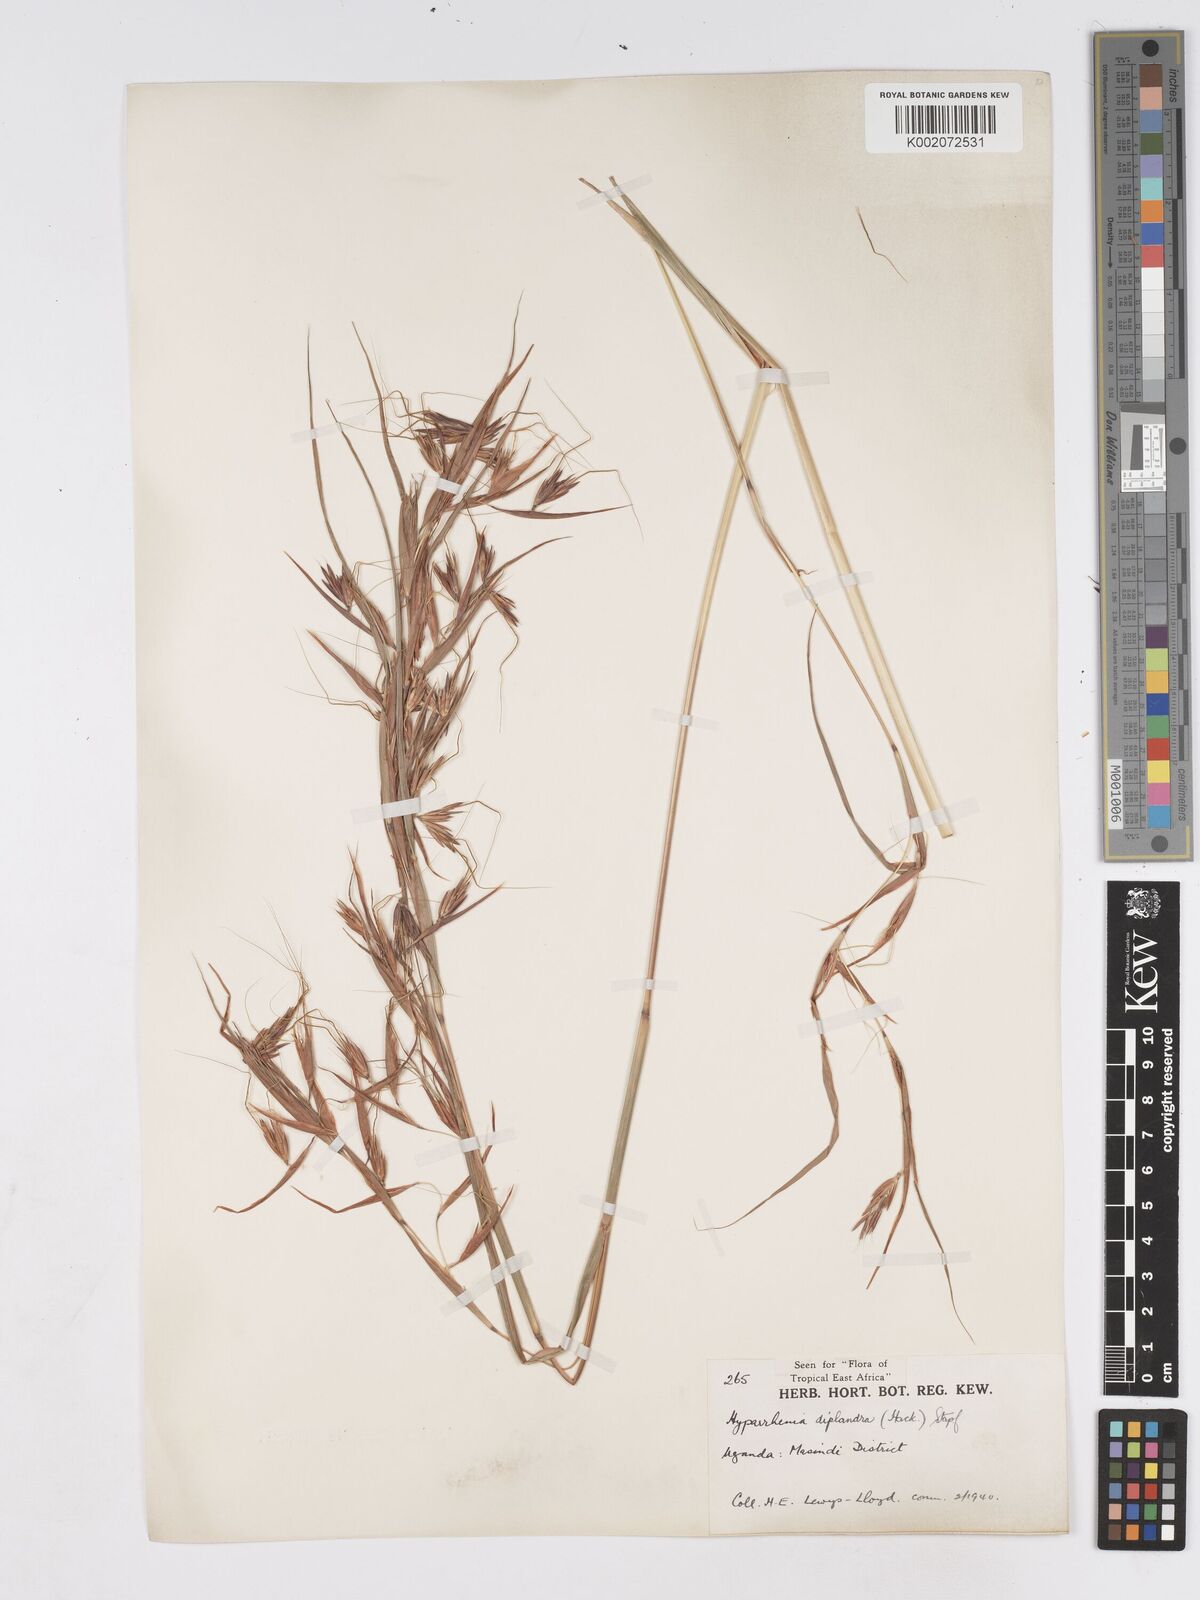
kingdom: Plantae
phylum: Tracheophyta
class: Liliopsida
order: Poales
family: Poaceae
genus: Hyparrhenia
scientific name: Hyparrhenia
